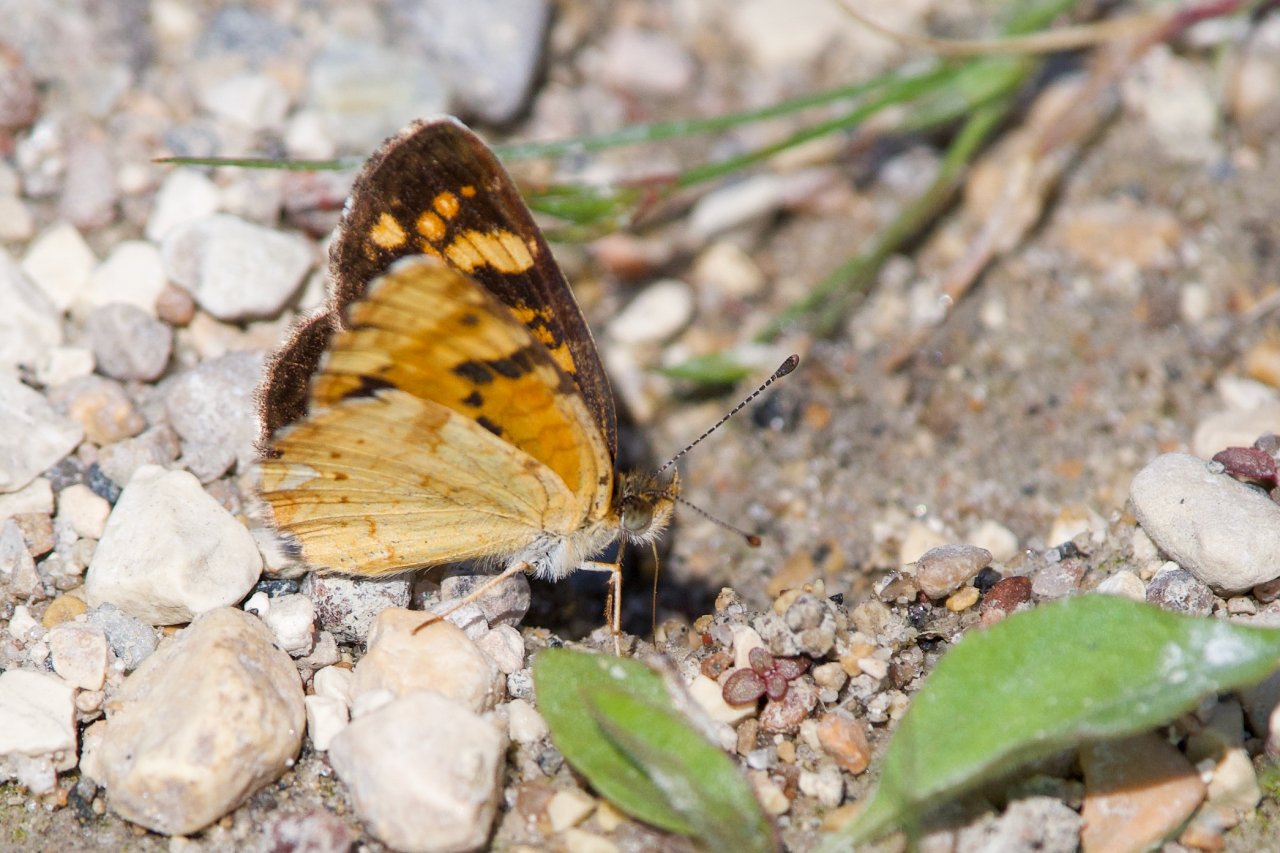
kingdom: Animalia
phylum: Arthropoda
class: Insecta
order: Lepidoptera
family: Nymphalidae
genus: Phyciodes
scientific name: Phyciodes batesii
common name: Tawny Crescent
